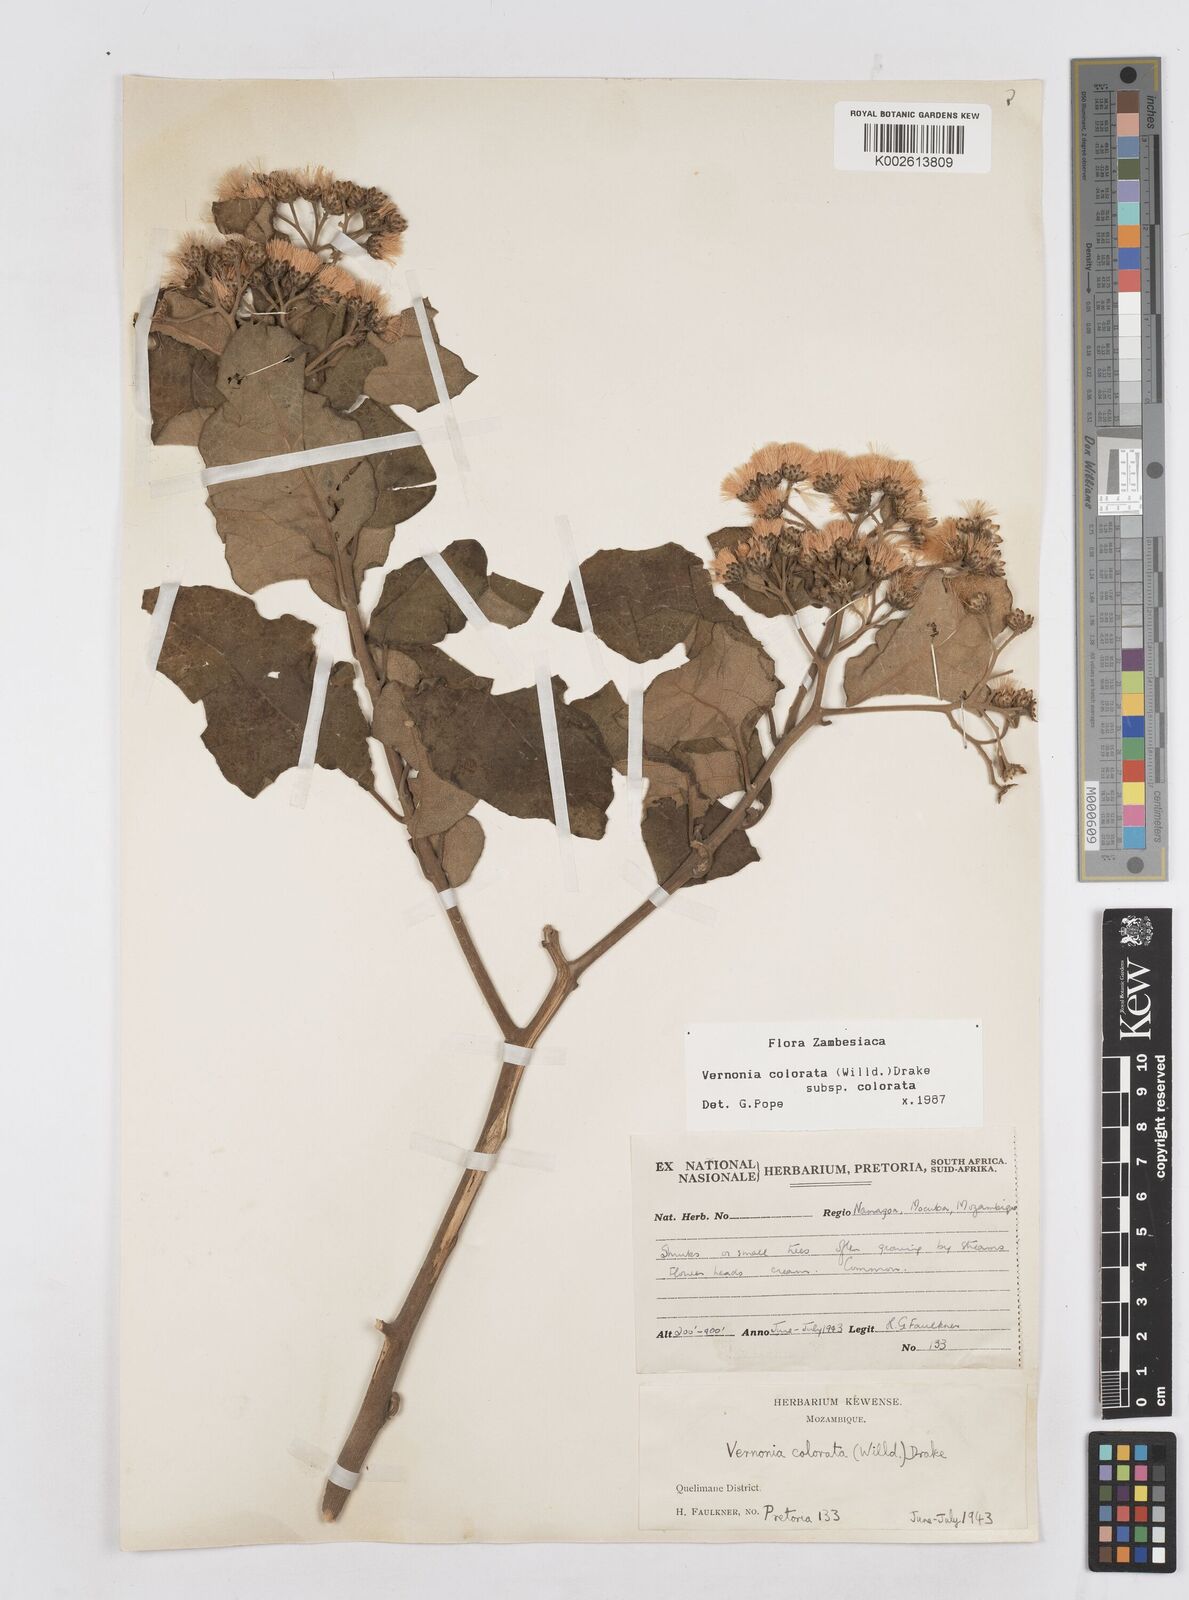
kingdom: Plantae
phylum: Tracheophyta
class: Magnoliopsida
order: Asterales
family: Asteraceae
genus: Vernonia
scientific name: Vernonia colorata
